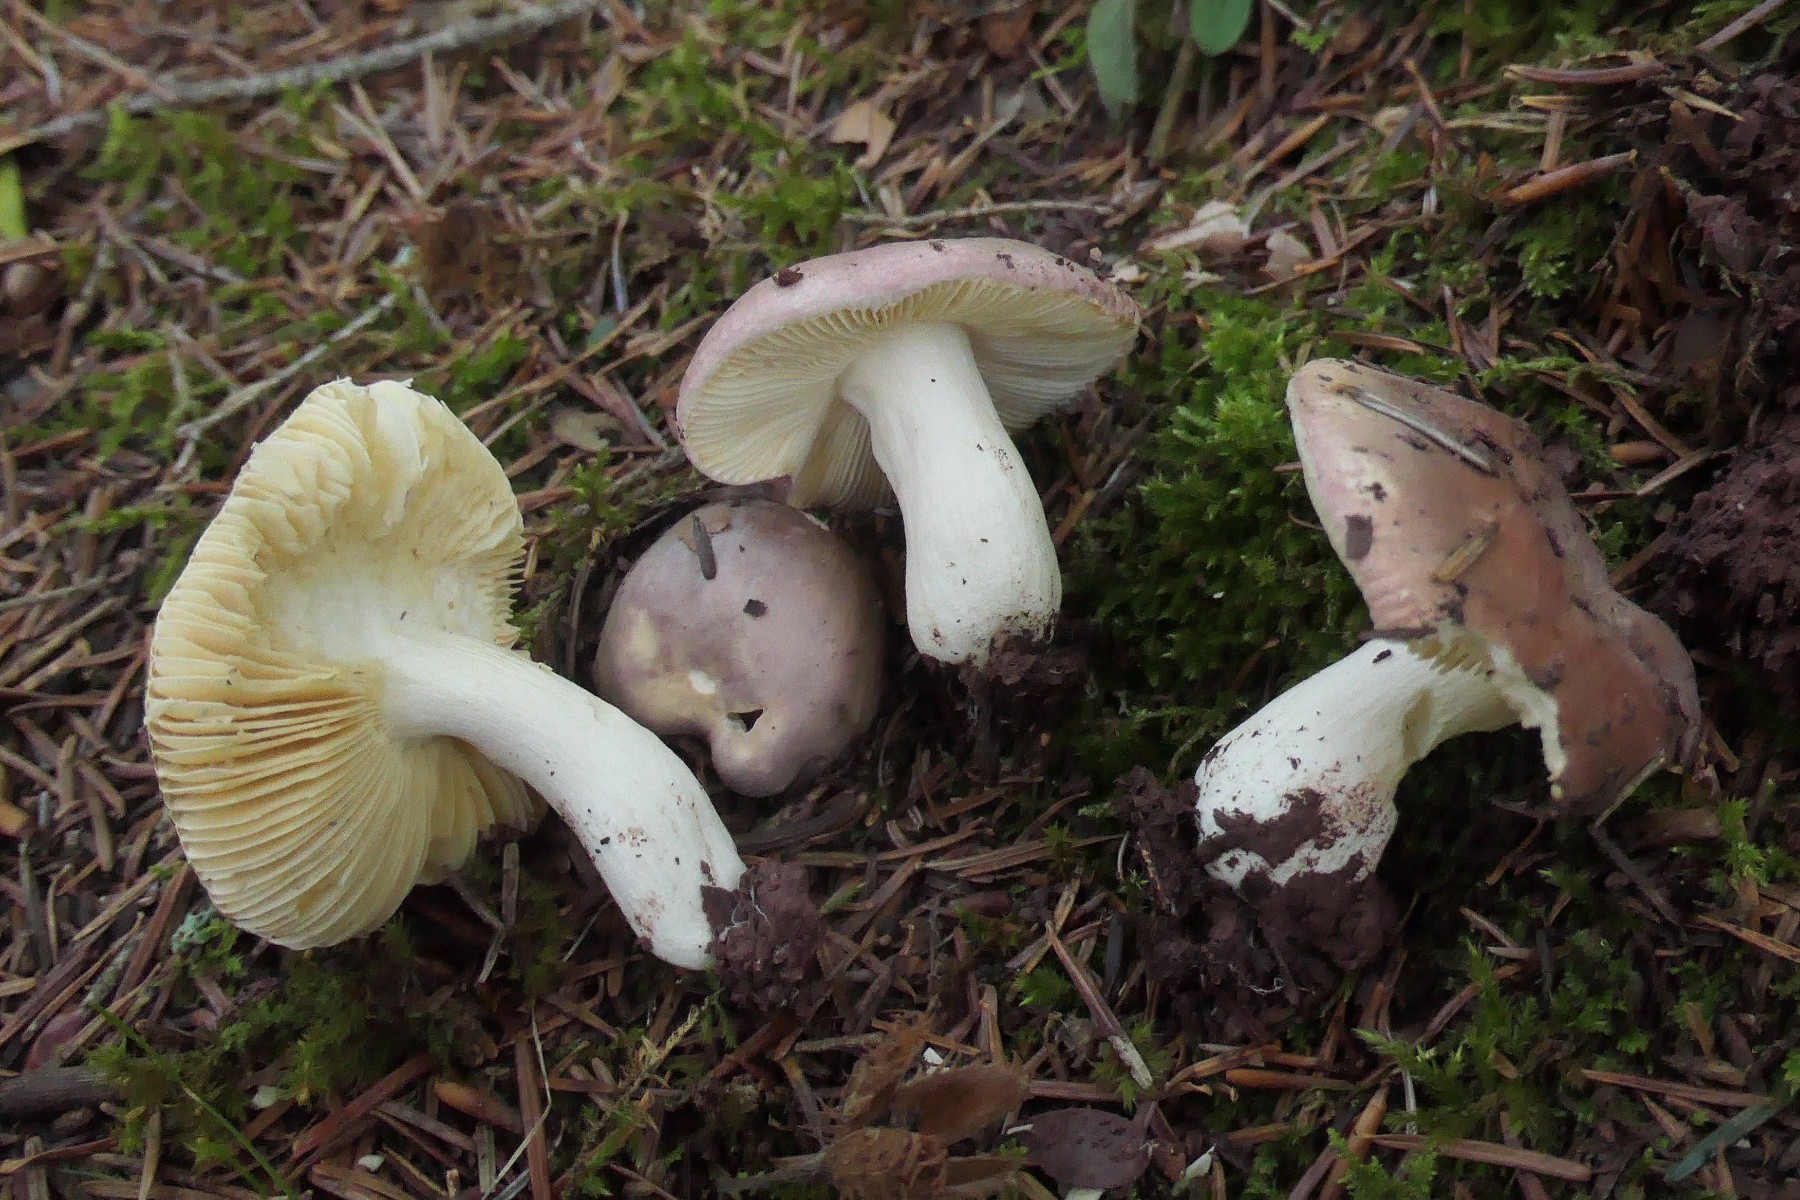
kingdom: Fungi
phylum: Basidiomycota
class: Agaricomycetes
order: Russulales
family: Russulaceae
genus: Russula
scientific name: Russula amethystina
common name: ametyst-skørhat
